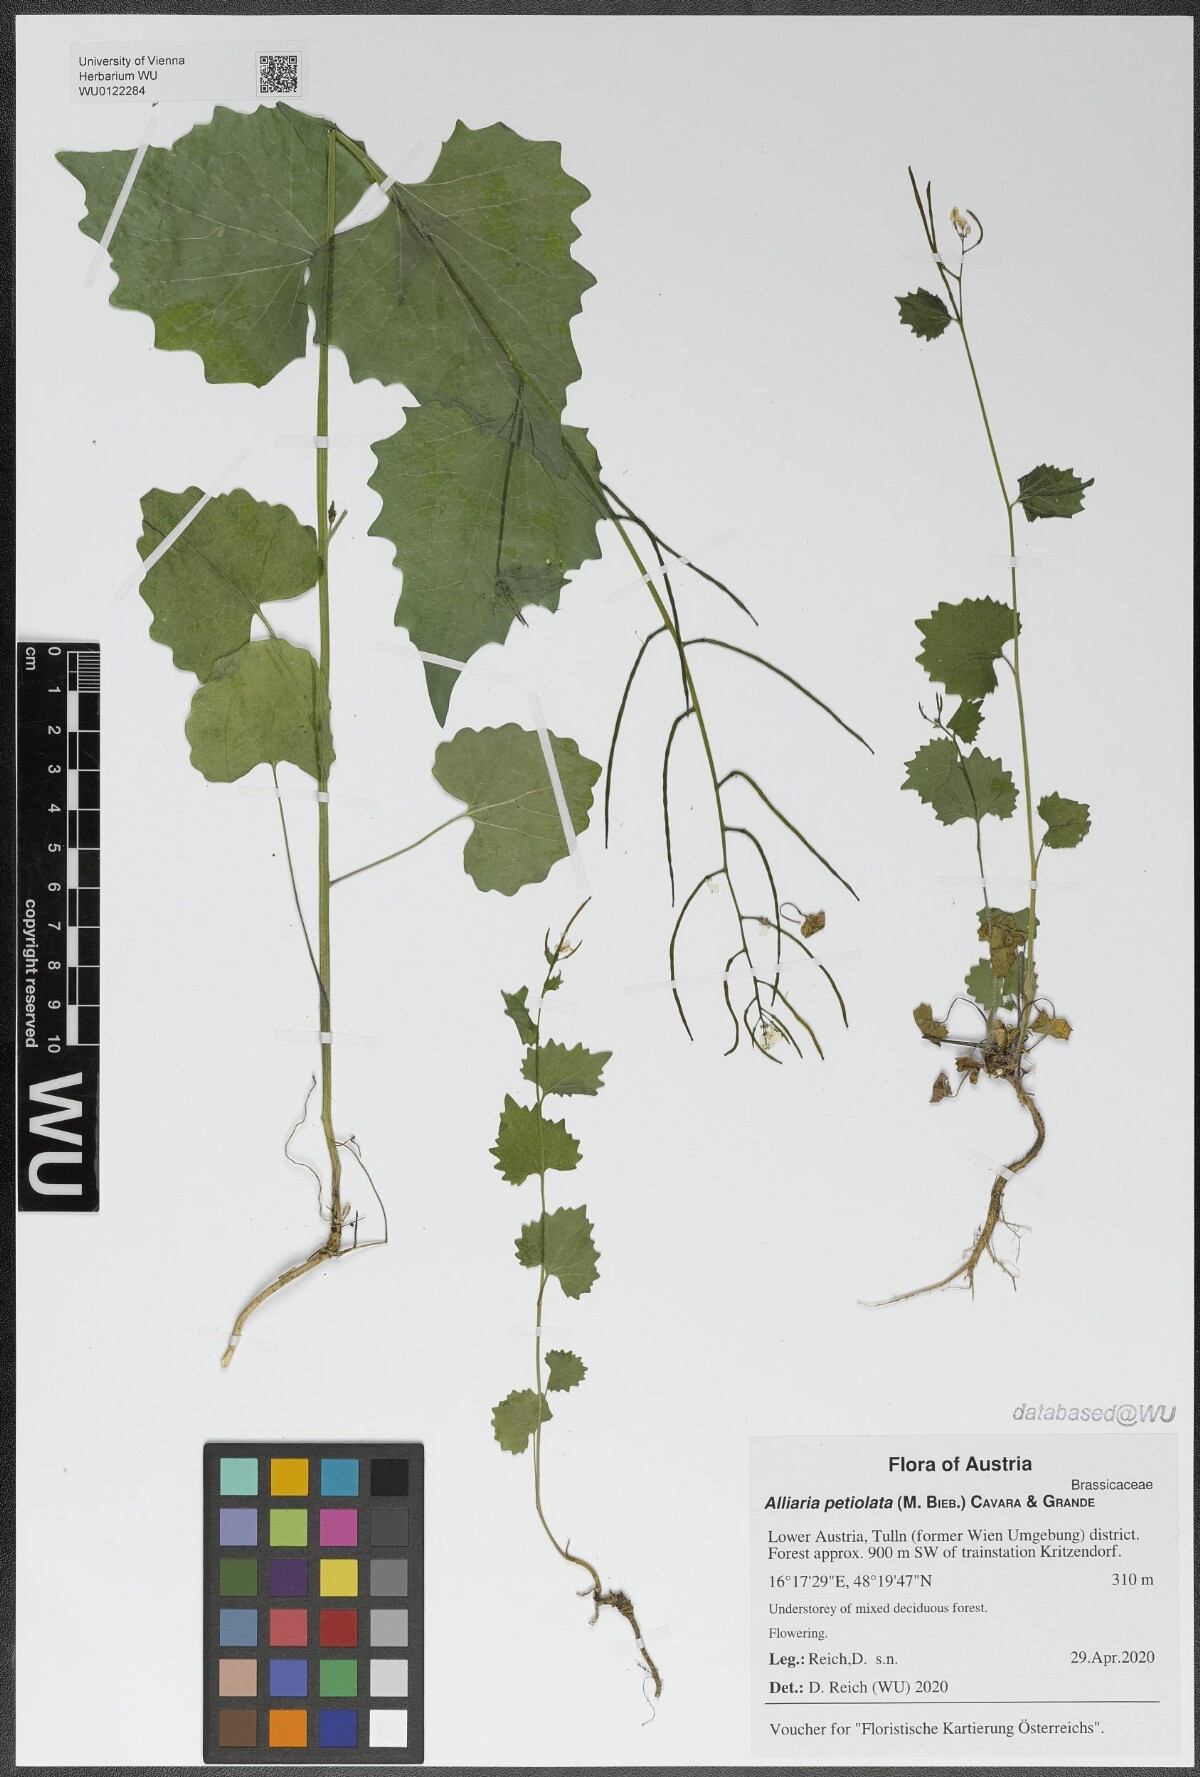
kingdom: Plantae
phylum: Tracheophyta
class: Magnoliopsida
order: Brassicales
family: Brassicaceae
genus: Alliaria
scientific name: Alliaria petiolata
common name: Garlic mustard
